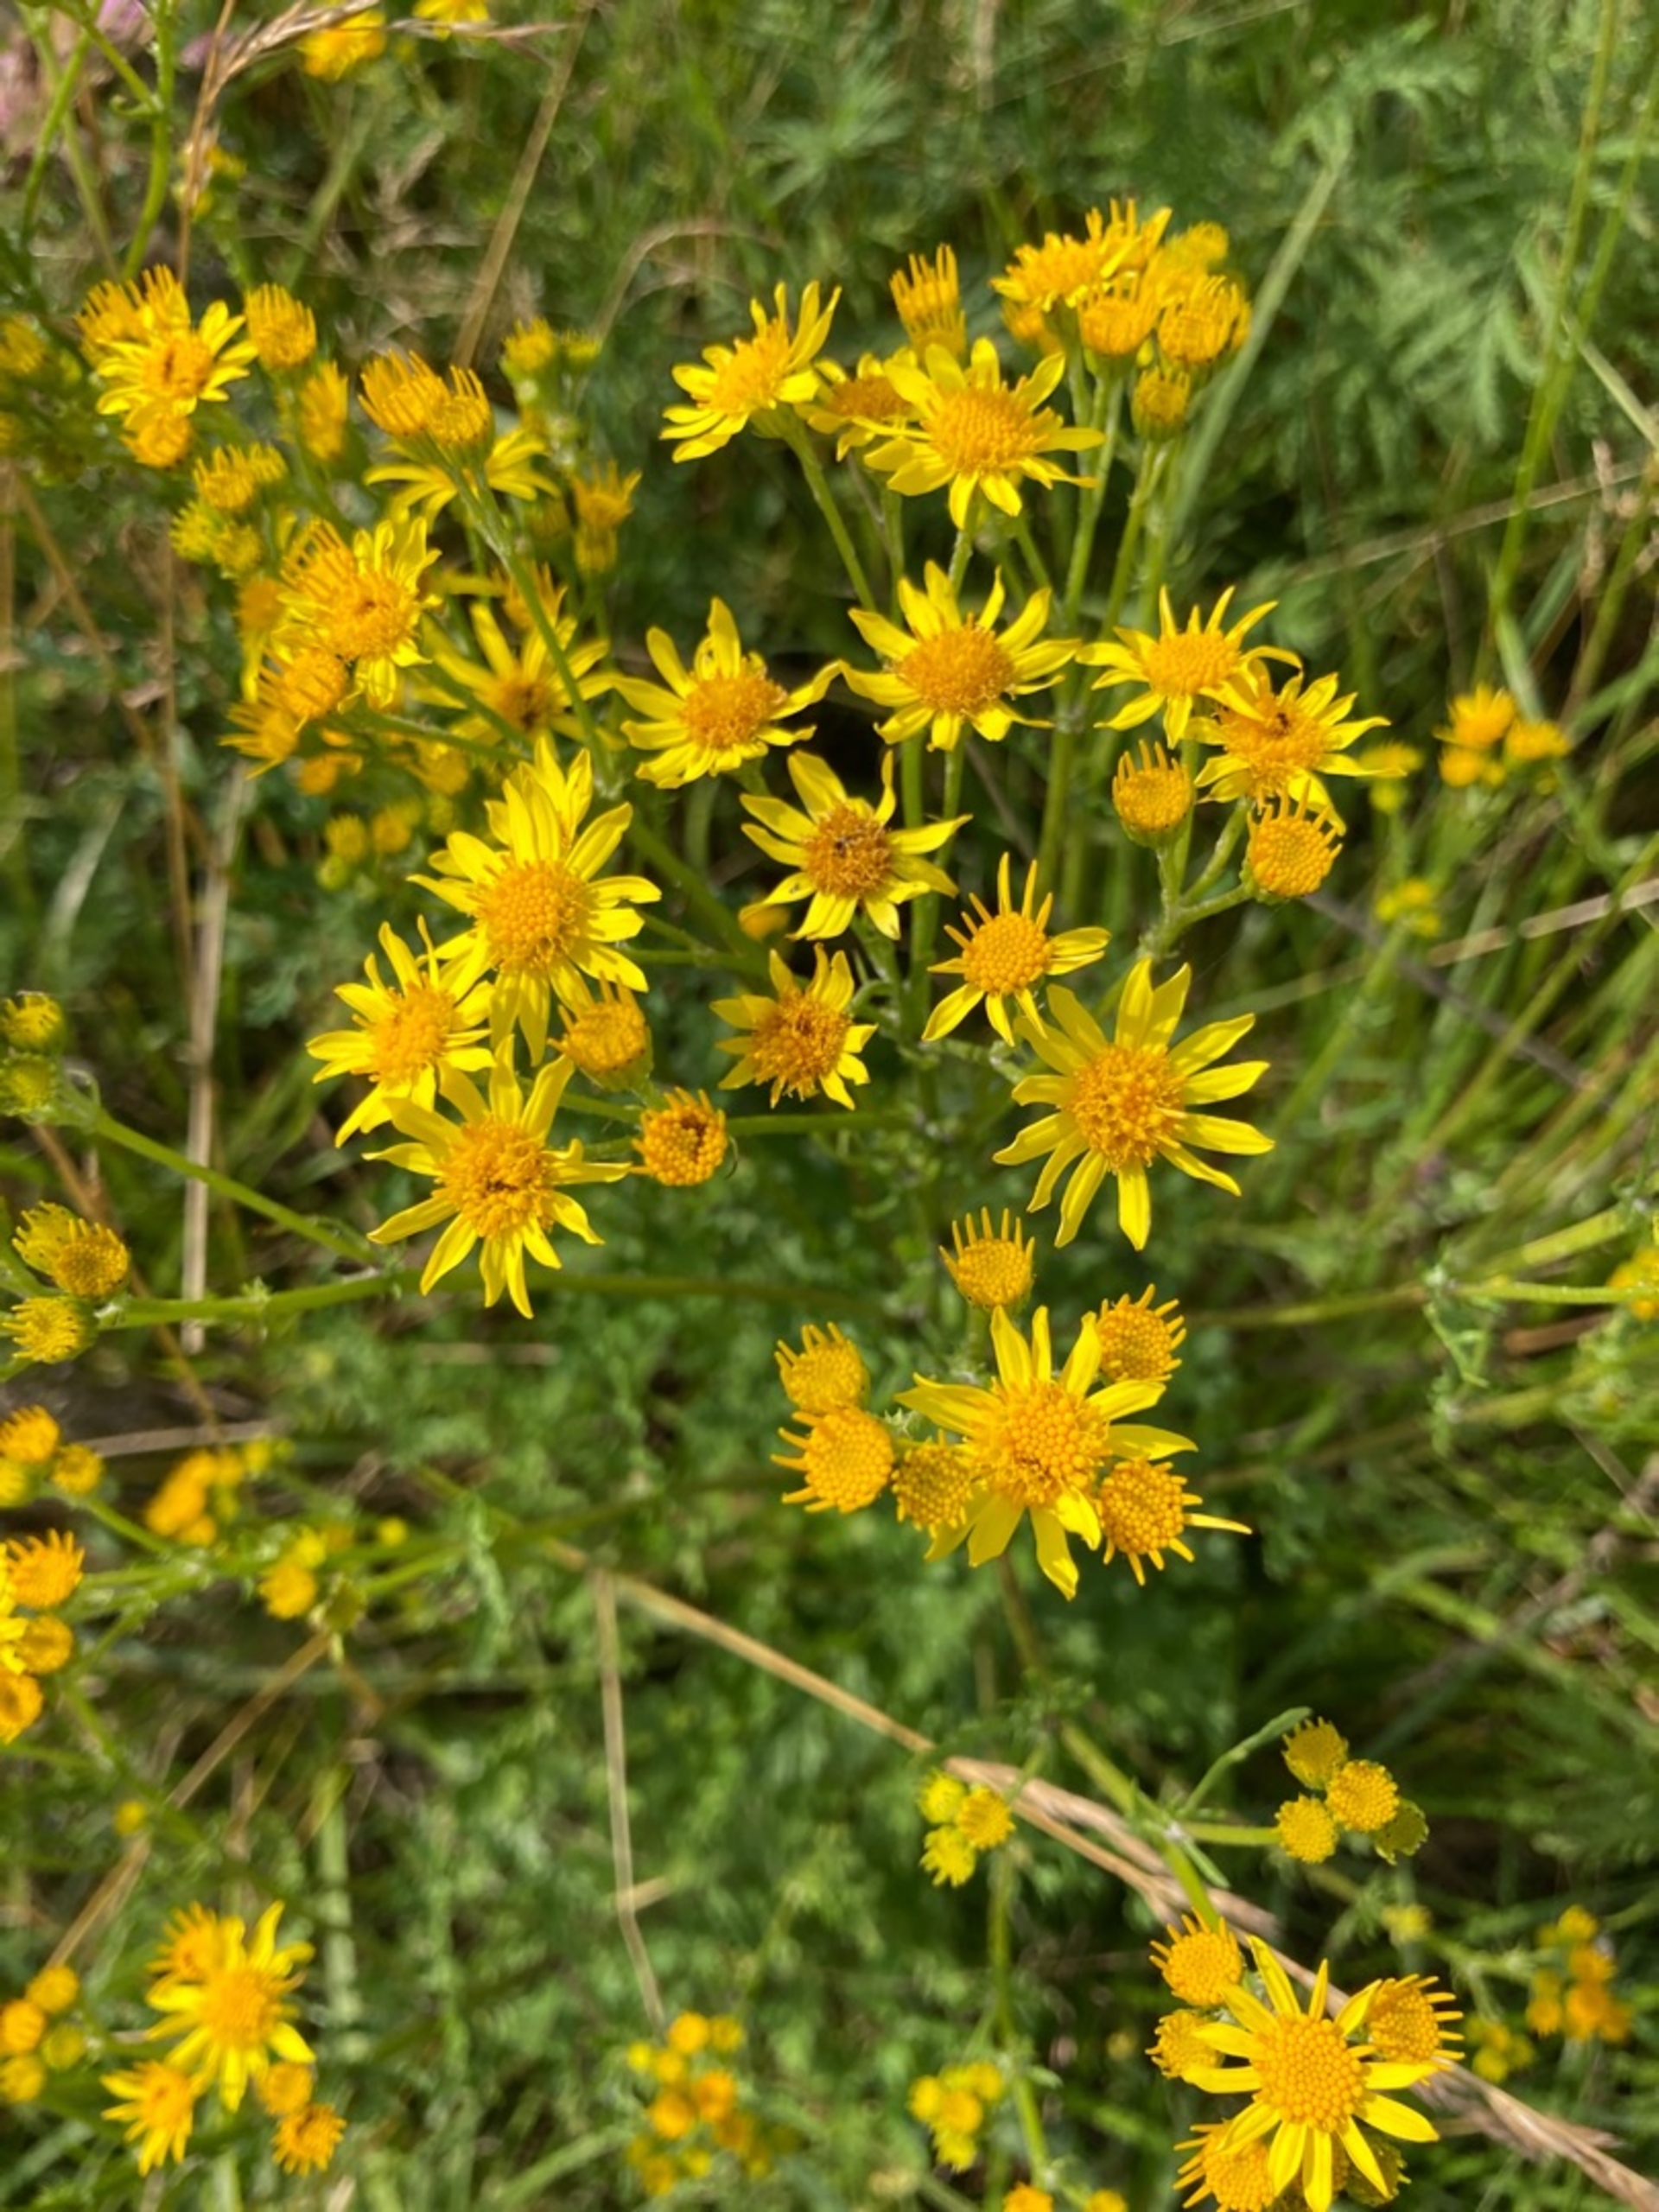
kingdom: Plantae
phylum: Tracheophyta
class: Magnoliopsida
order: Asterales
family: Asteraceae
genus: Jacobaea
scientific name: Jacobaea vulgaris
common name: Eng-brandbæger
